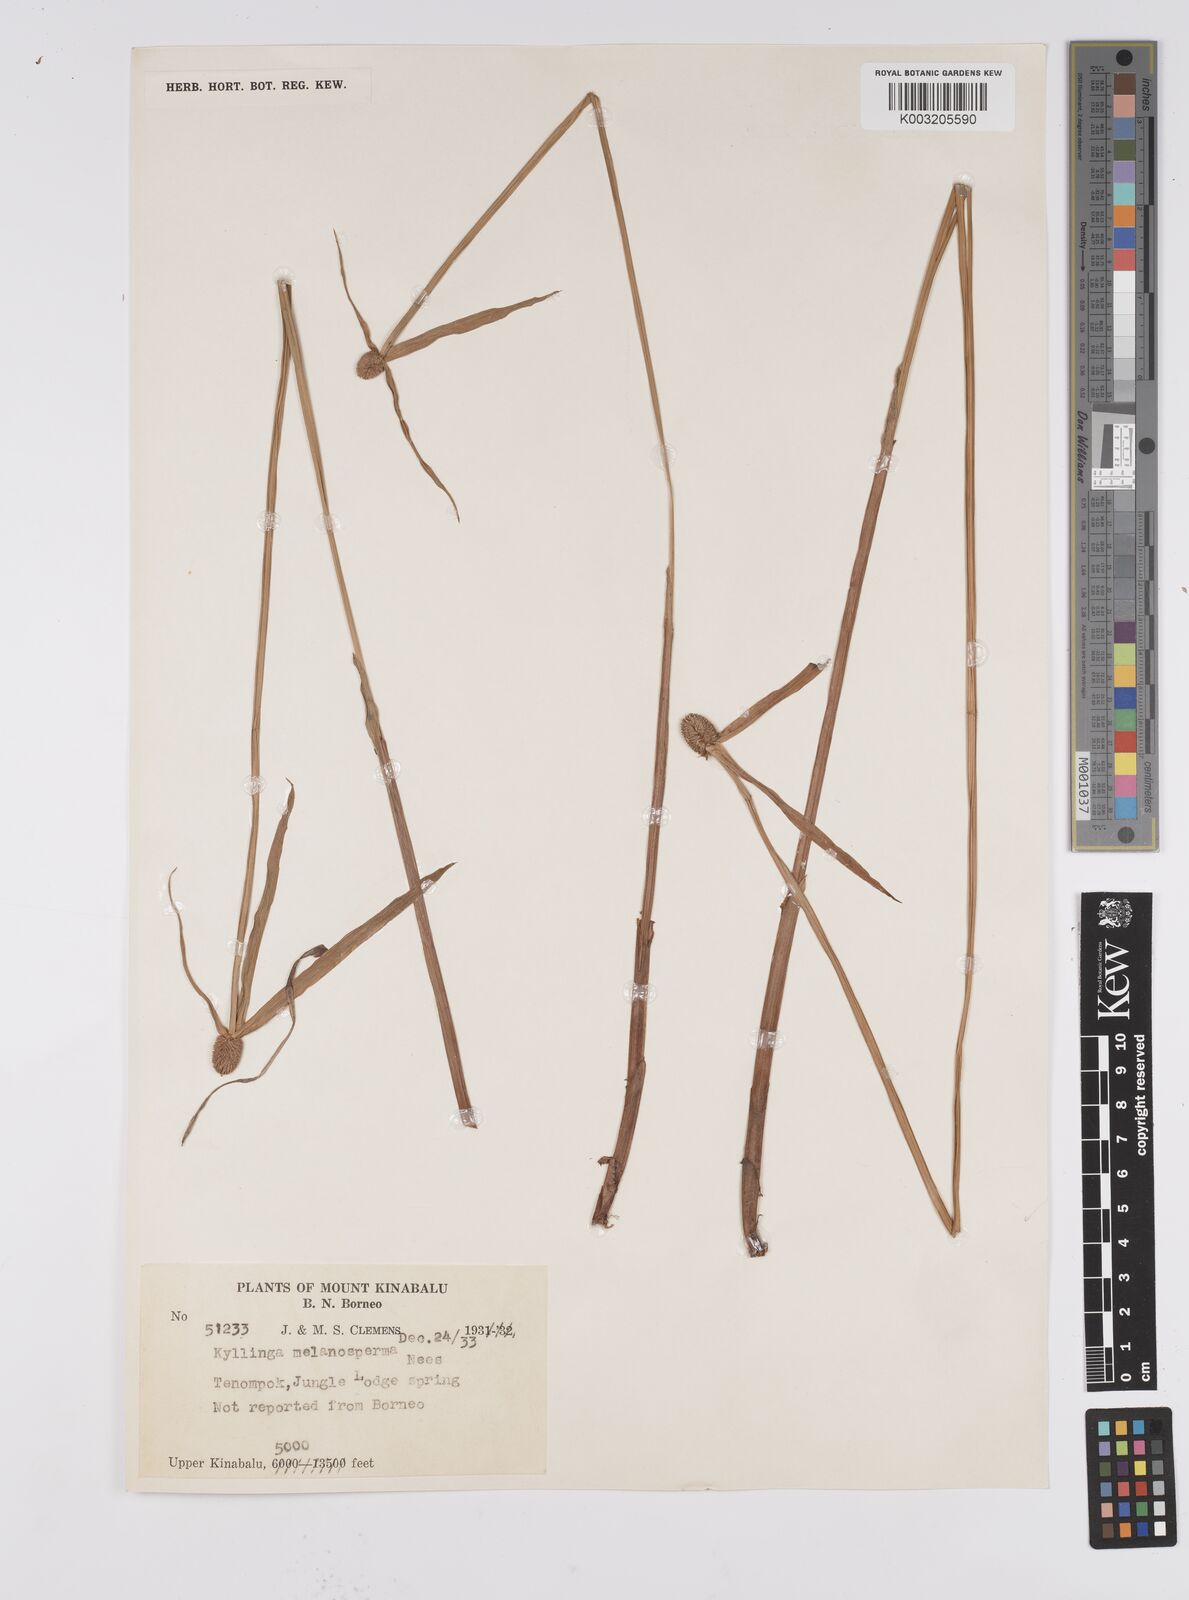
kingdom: Plantae
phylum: Tracheophyta
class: Liliopsida
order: Poales
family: Cyperaceae
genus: Cyperus
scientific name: Cyperus melanospermus
